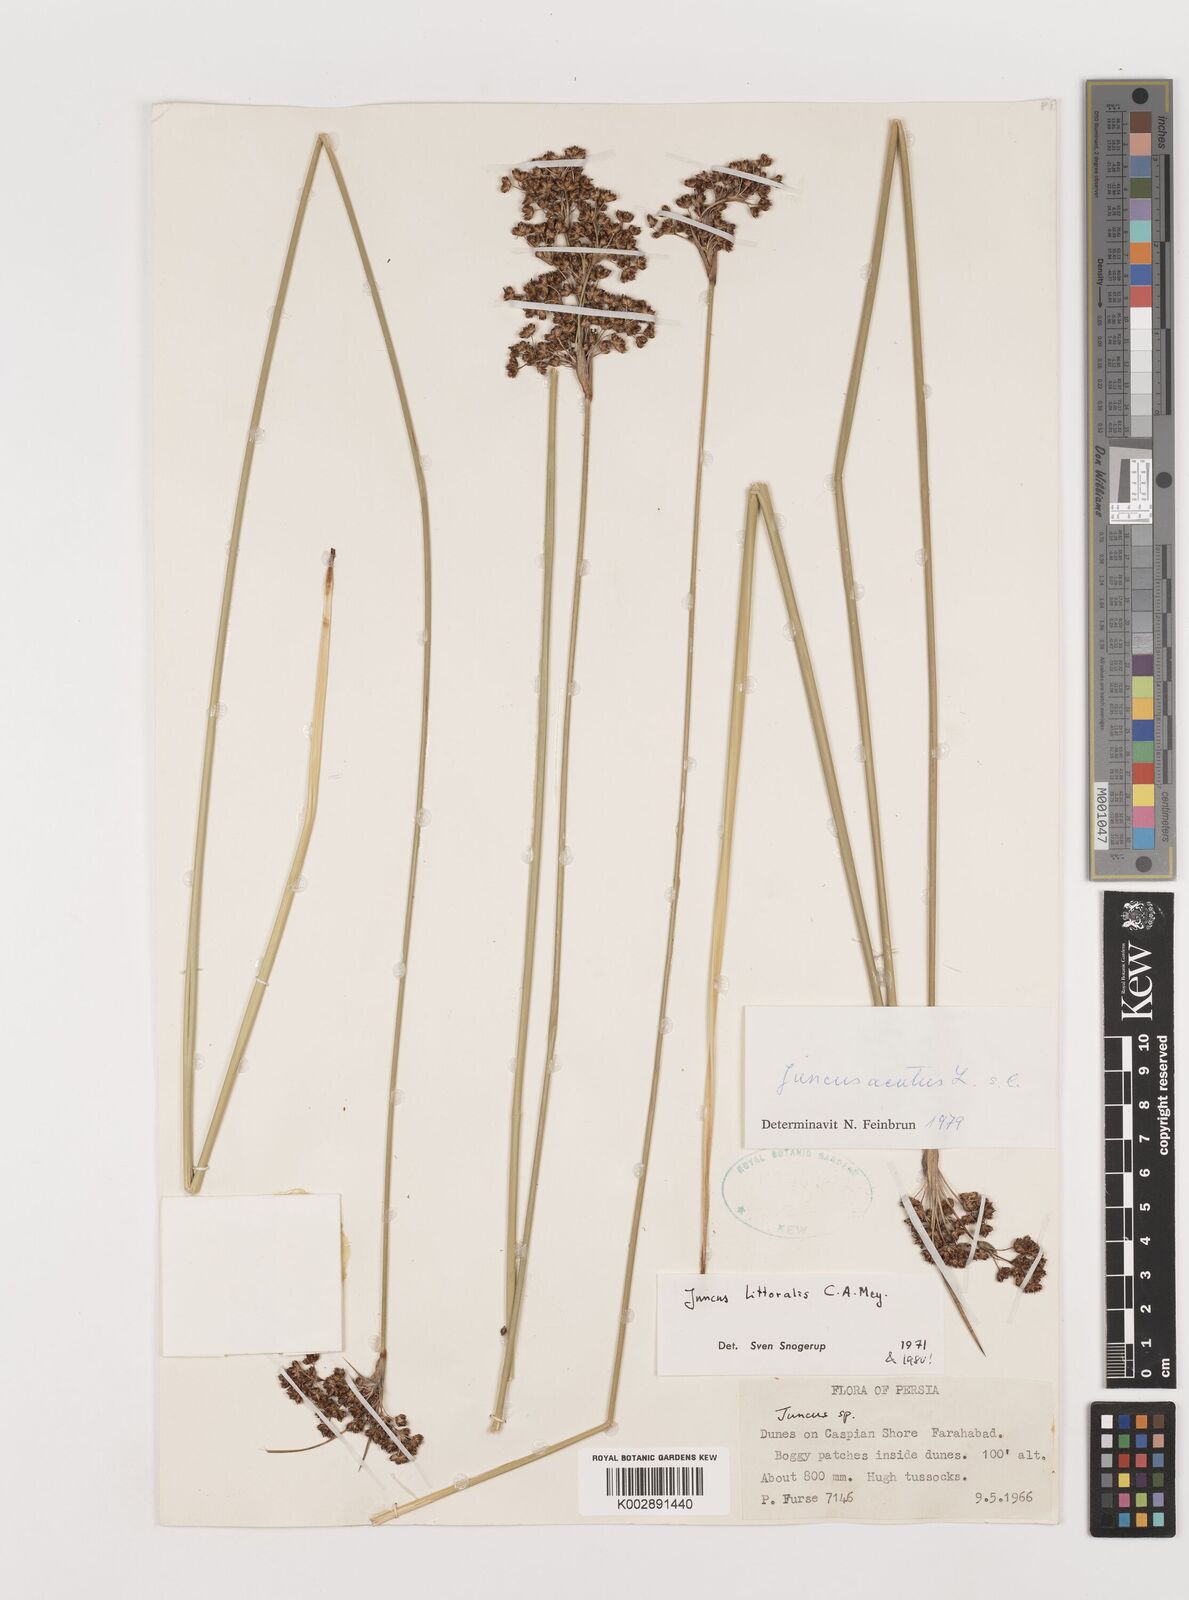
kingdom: Plantae
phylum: Tracheophyta
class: Liliopsida
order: Poales
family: Juncaceae
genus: Juncus
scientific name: Juncus littoralis
